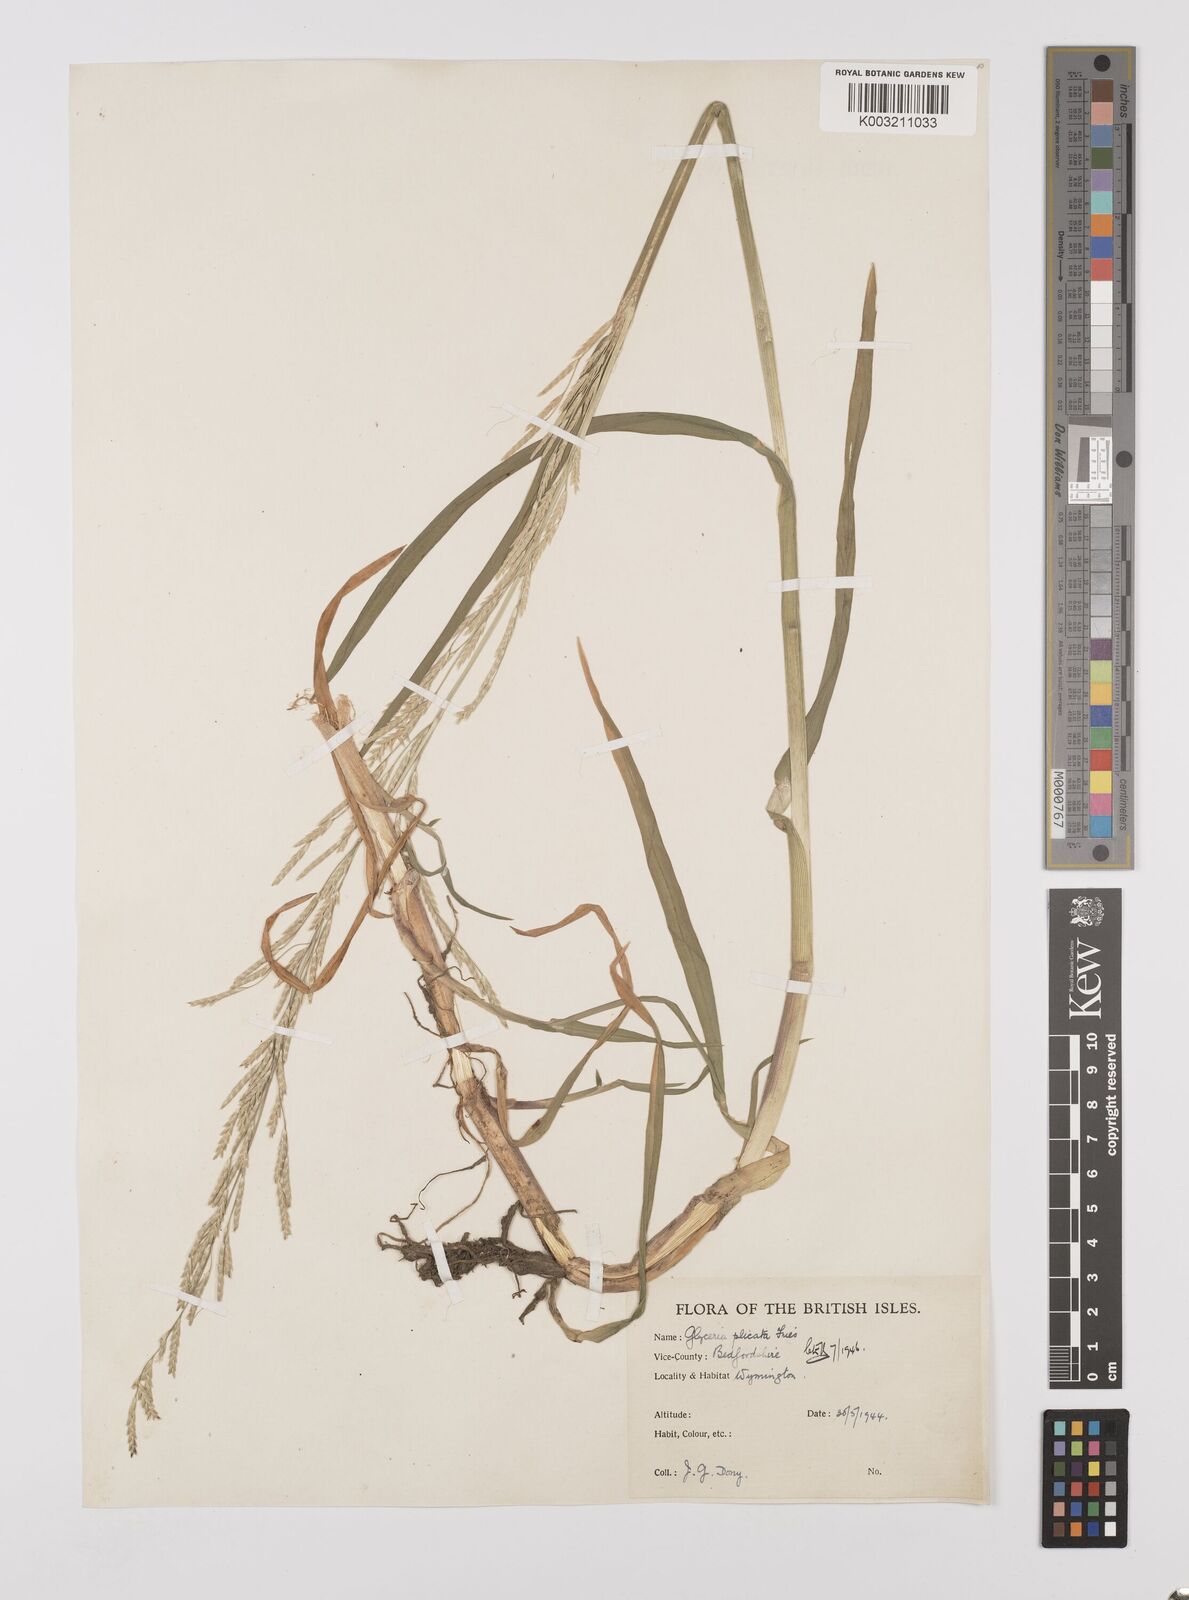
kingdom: Plantae
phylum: Tracheophyta
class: Liliopsida
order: Poales
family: Poaceae
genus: Glyceria
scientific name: Glyceria notata
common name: Plicate sweet-grass
